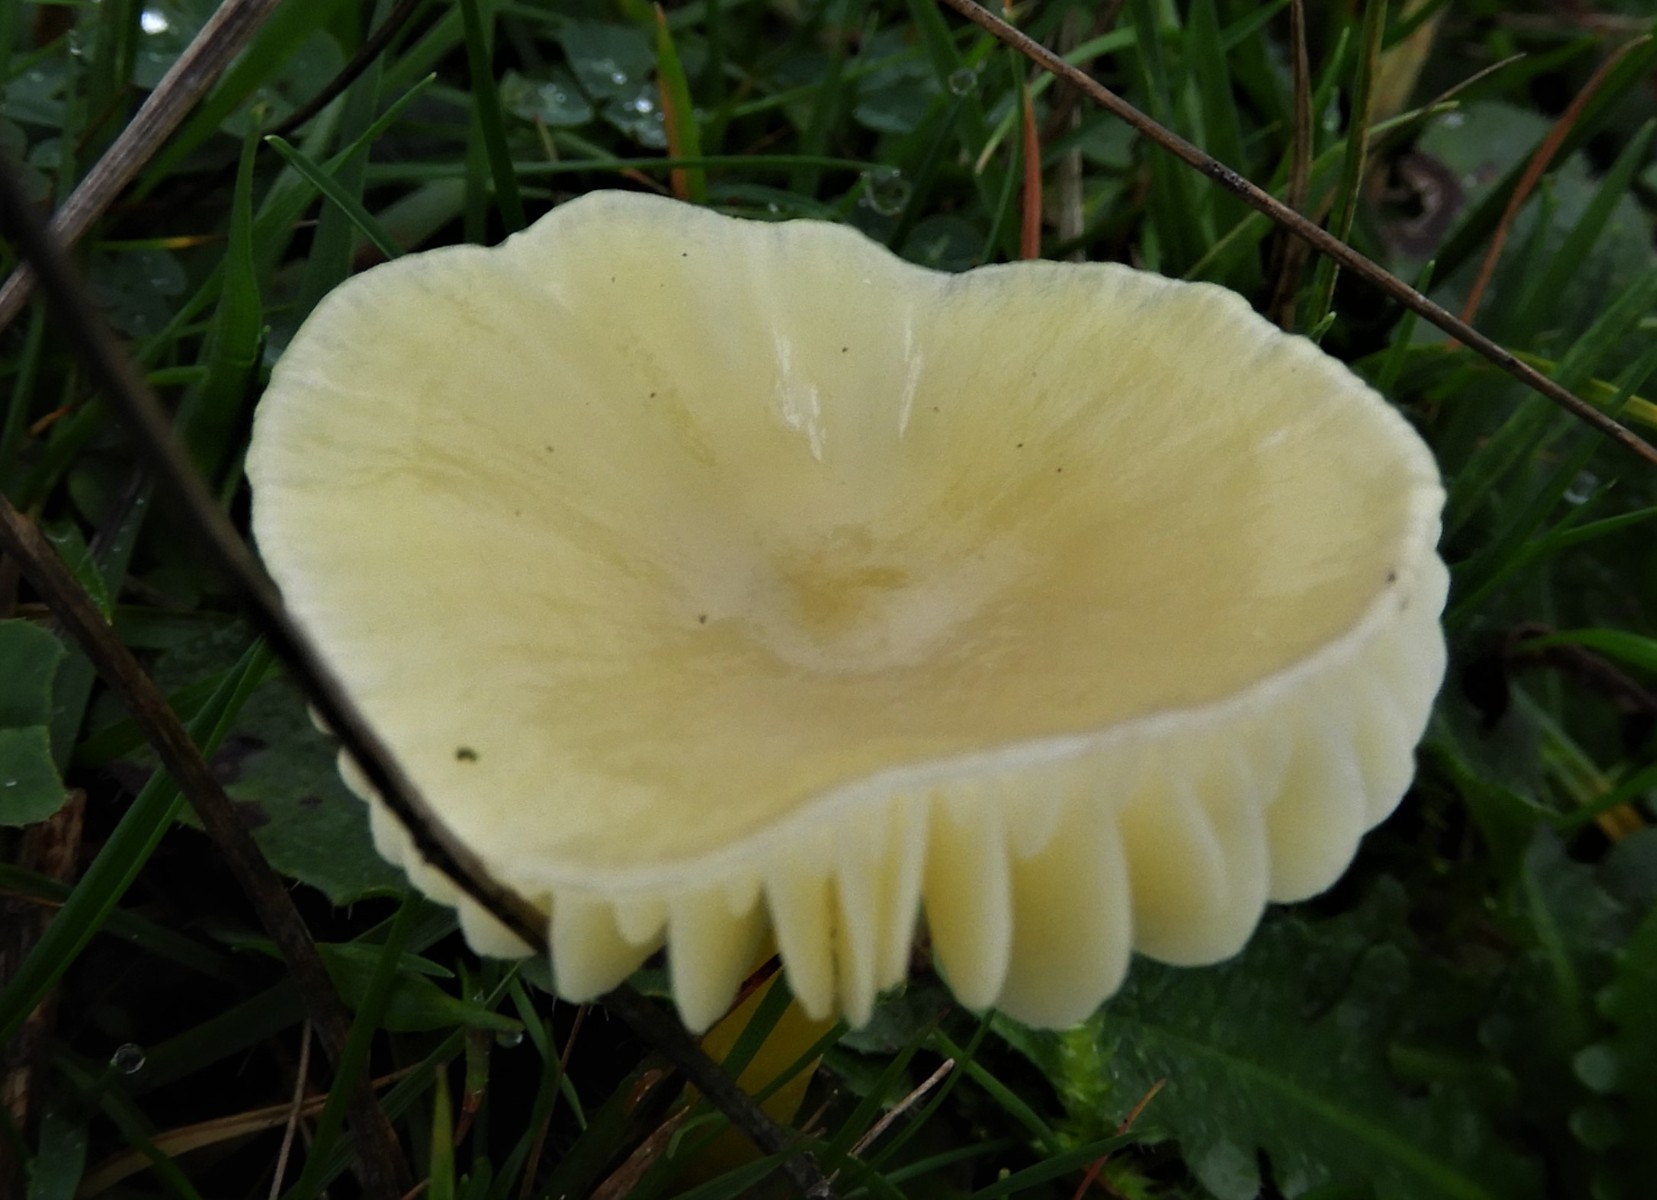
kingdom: Fungi
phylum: Basidiomycota
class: Agaricomycetes
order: Agaricales
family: Hygrophoraceae
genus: Hygrocybe
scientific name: Hygrocybe chlorophana
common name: gul vokshat
